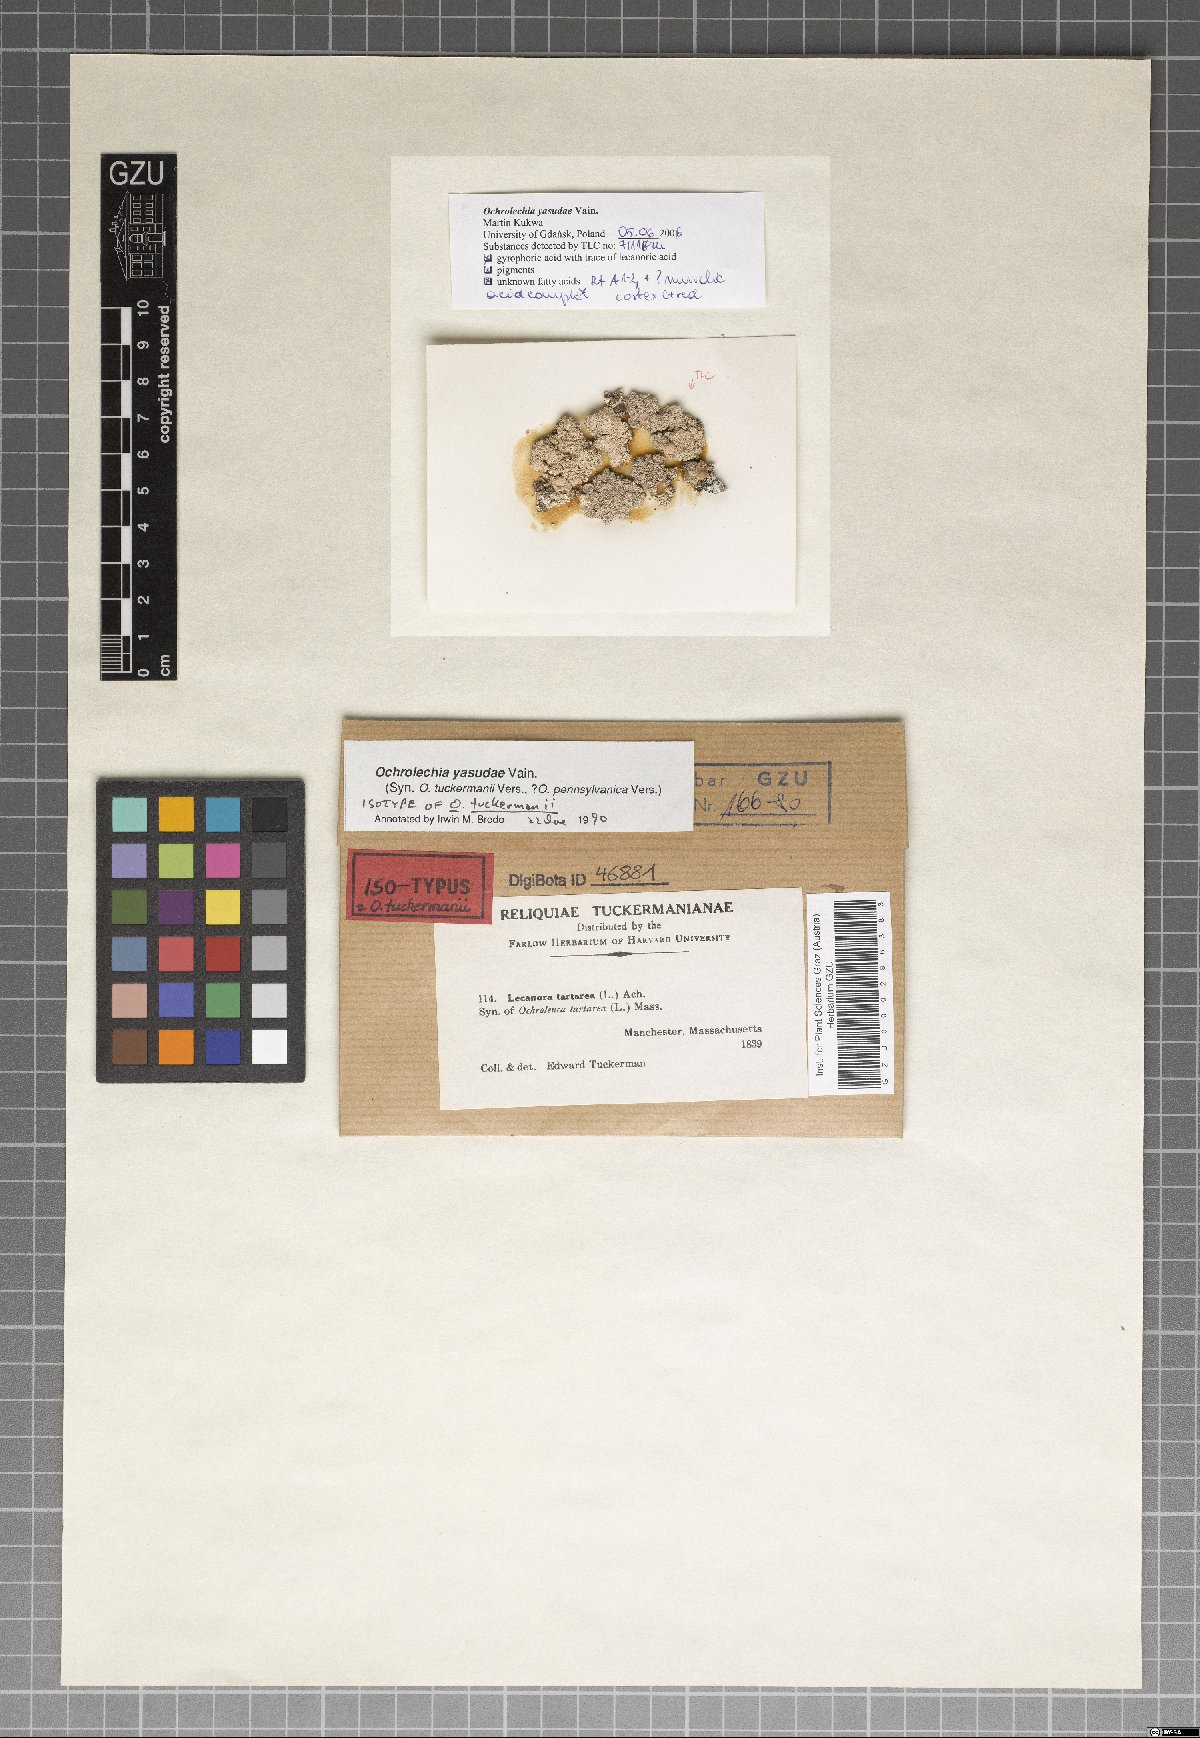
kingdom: Fungi
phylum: Ascomycota
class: Lecanoromycetes
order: Pertusariales
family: Ochrolechiaceae
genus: Ochrolechia
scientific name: Ochrolechia yasudae
